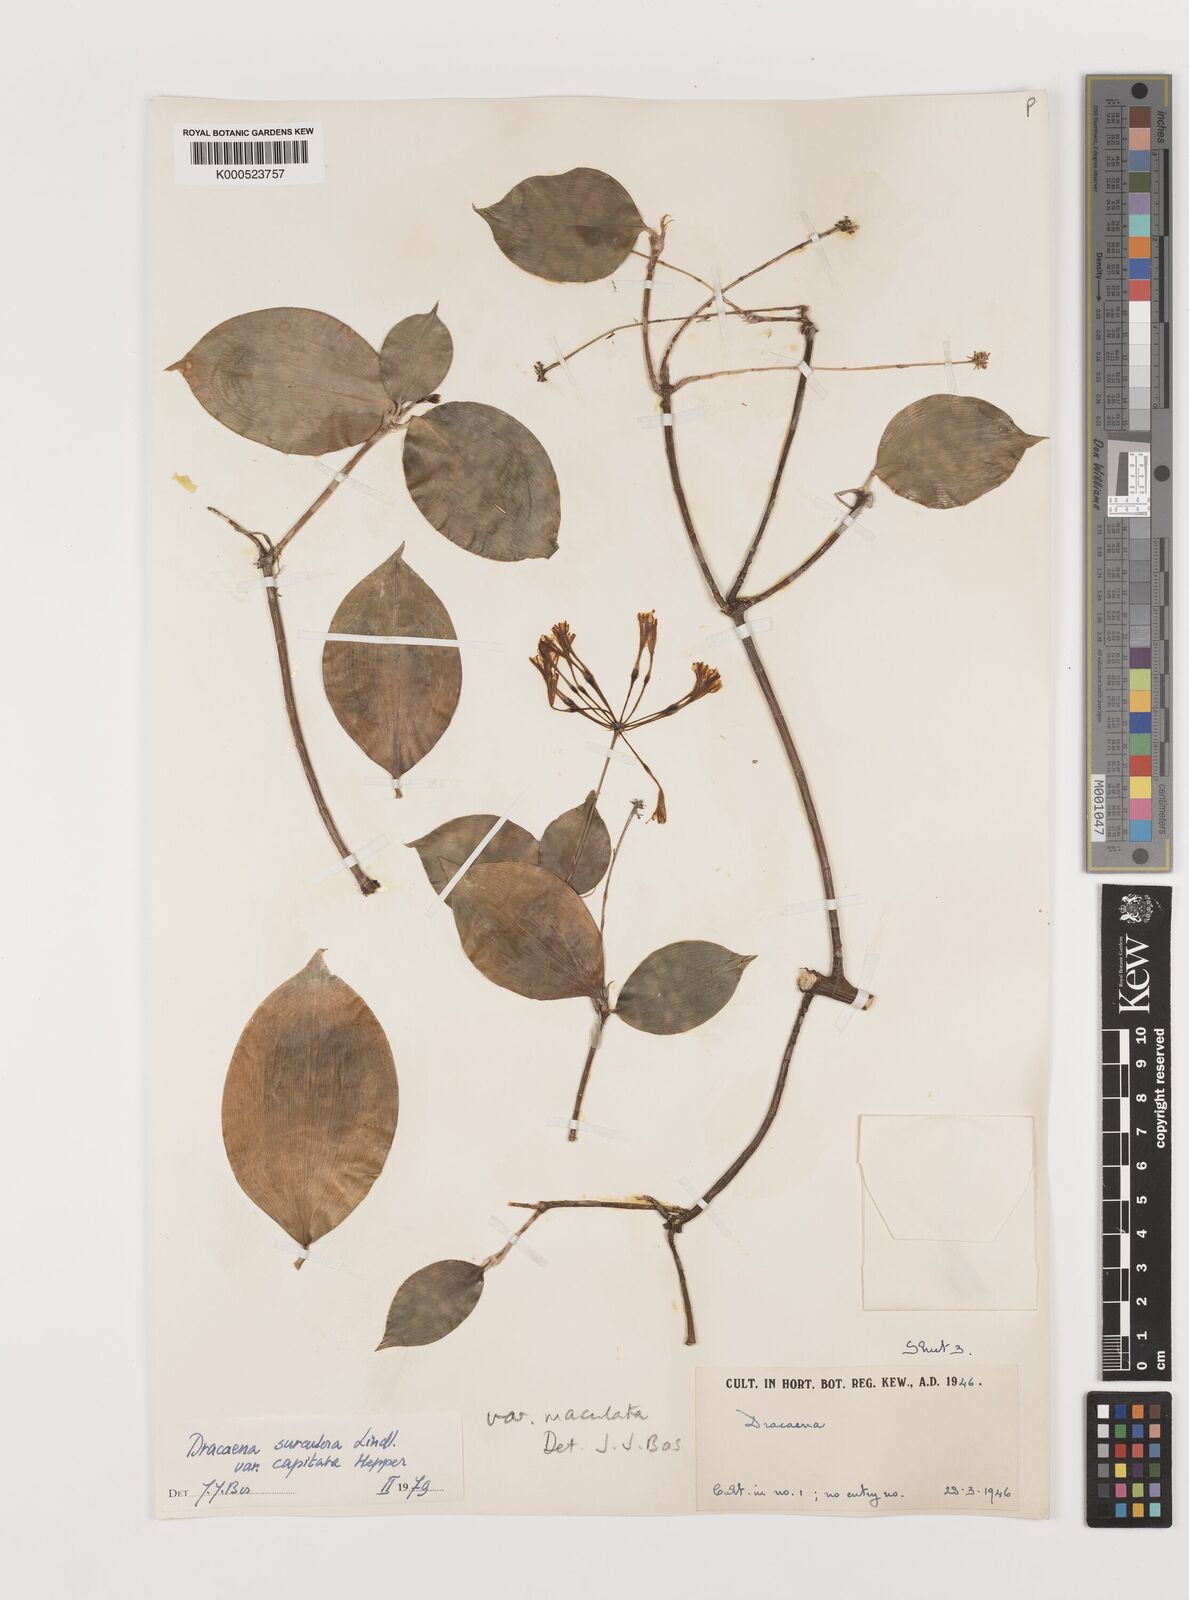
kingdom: Plantae
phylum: Tracheophyta
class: Liliopsida
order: Asparagales
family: Asparagaceae
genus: Dracaena
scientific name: Dracaena surculosa
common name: Spotted dracaena
